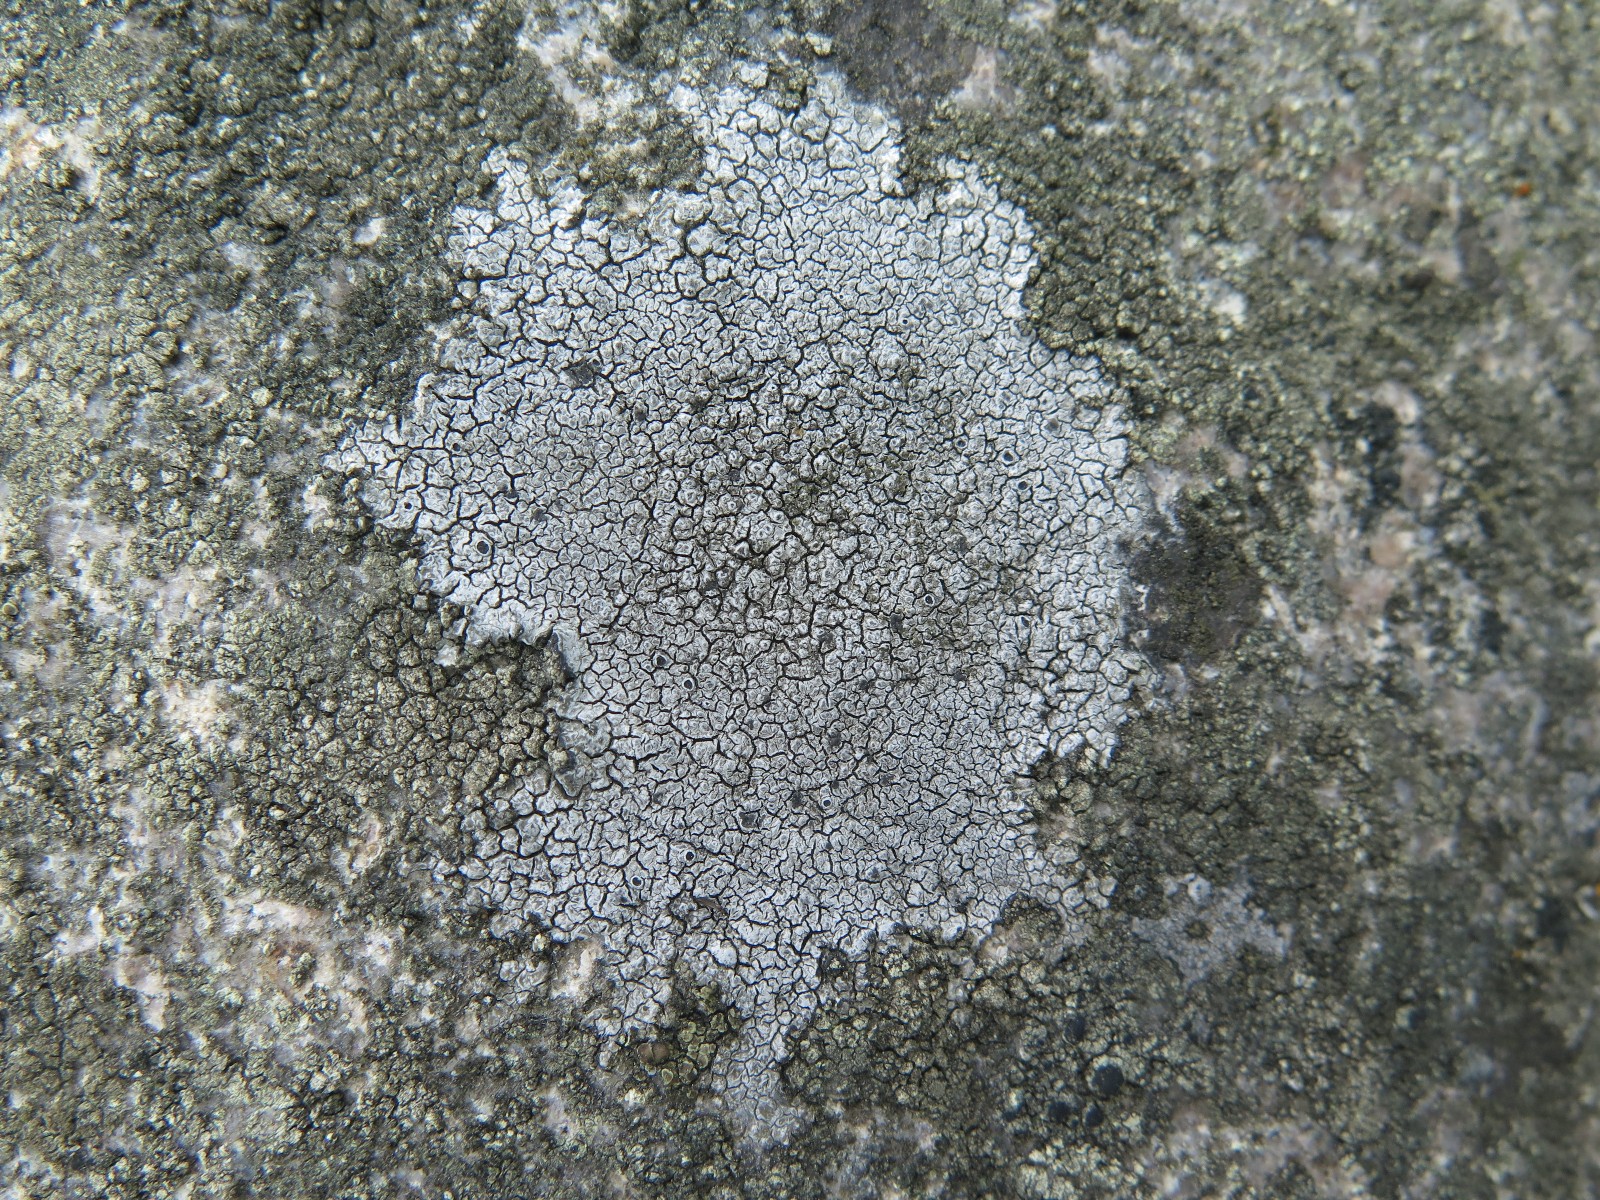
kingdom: Fungi
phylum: Ascomycota
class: Lecanoromycetes
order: Pertusariales
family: Megasporaceae
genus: Aspicilia
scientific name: Aspicilia cinerea
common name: grå hulskivelav
